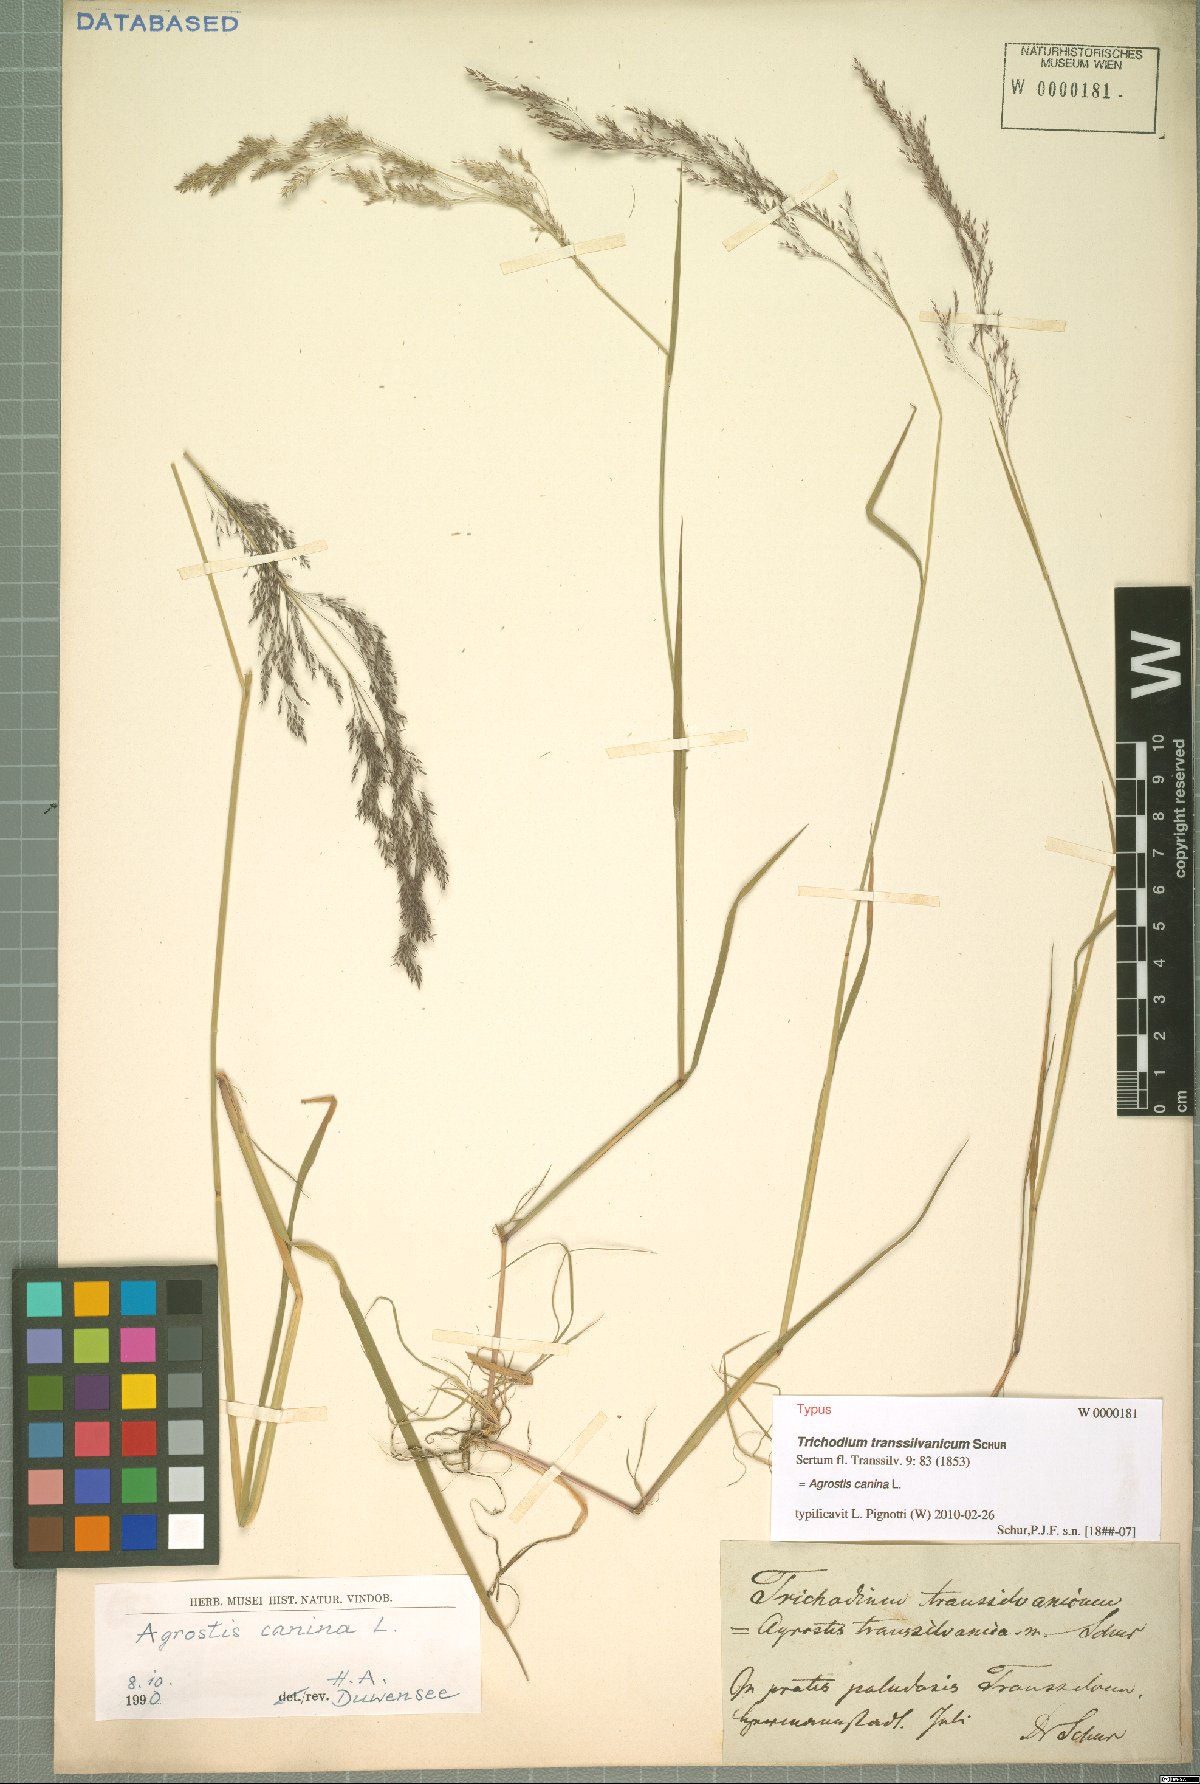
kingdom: Plantae
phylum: Tracheophyta
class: Liliopsida
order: Poales
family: Poaceae
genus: Agrostis
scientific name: Agrostis canina
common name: Velvet bent
